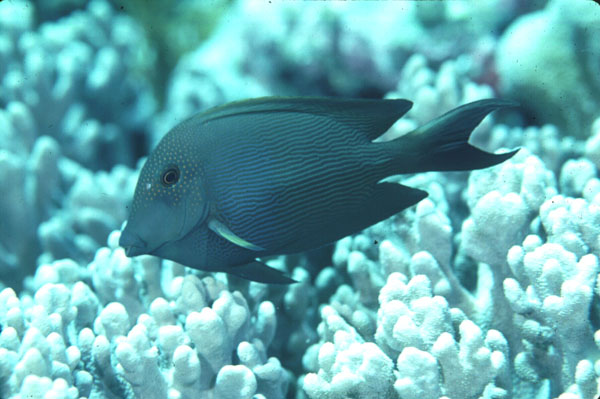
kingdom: Animalia
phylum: Chordata
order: Perciformes
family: Acanthuridae
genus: Ctenochaetus
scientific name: Ctenochaetus striatus
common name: Bristle-toothed surgeonfish
